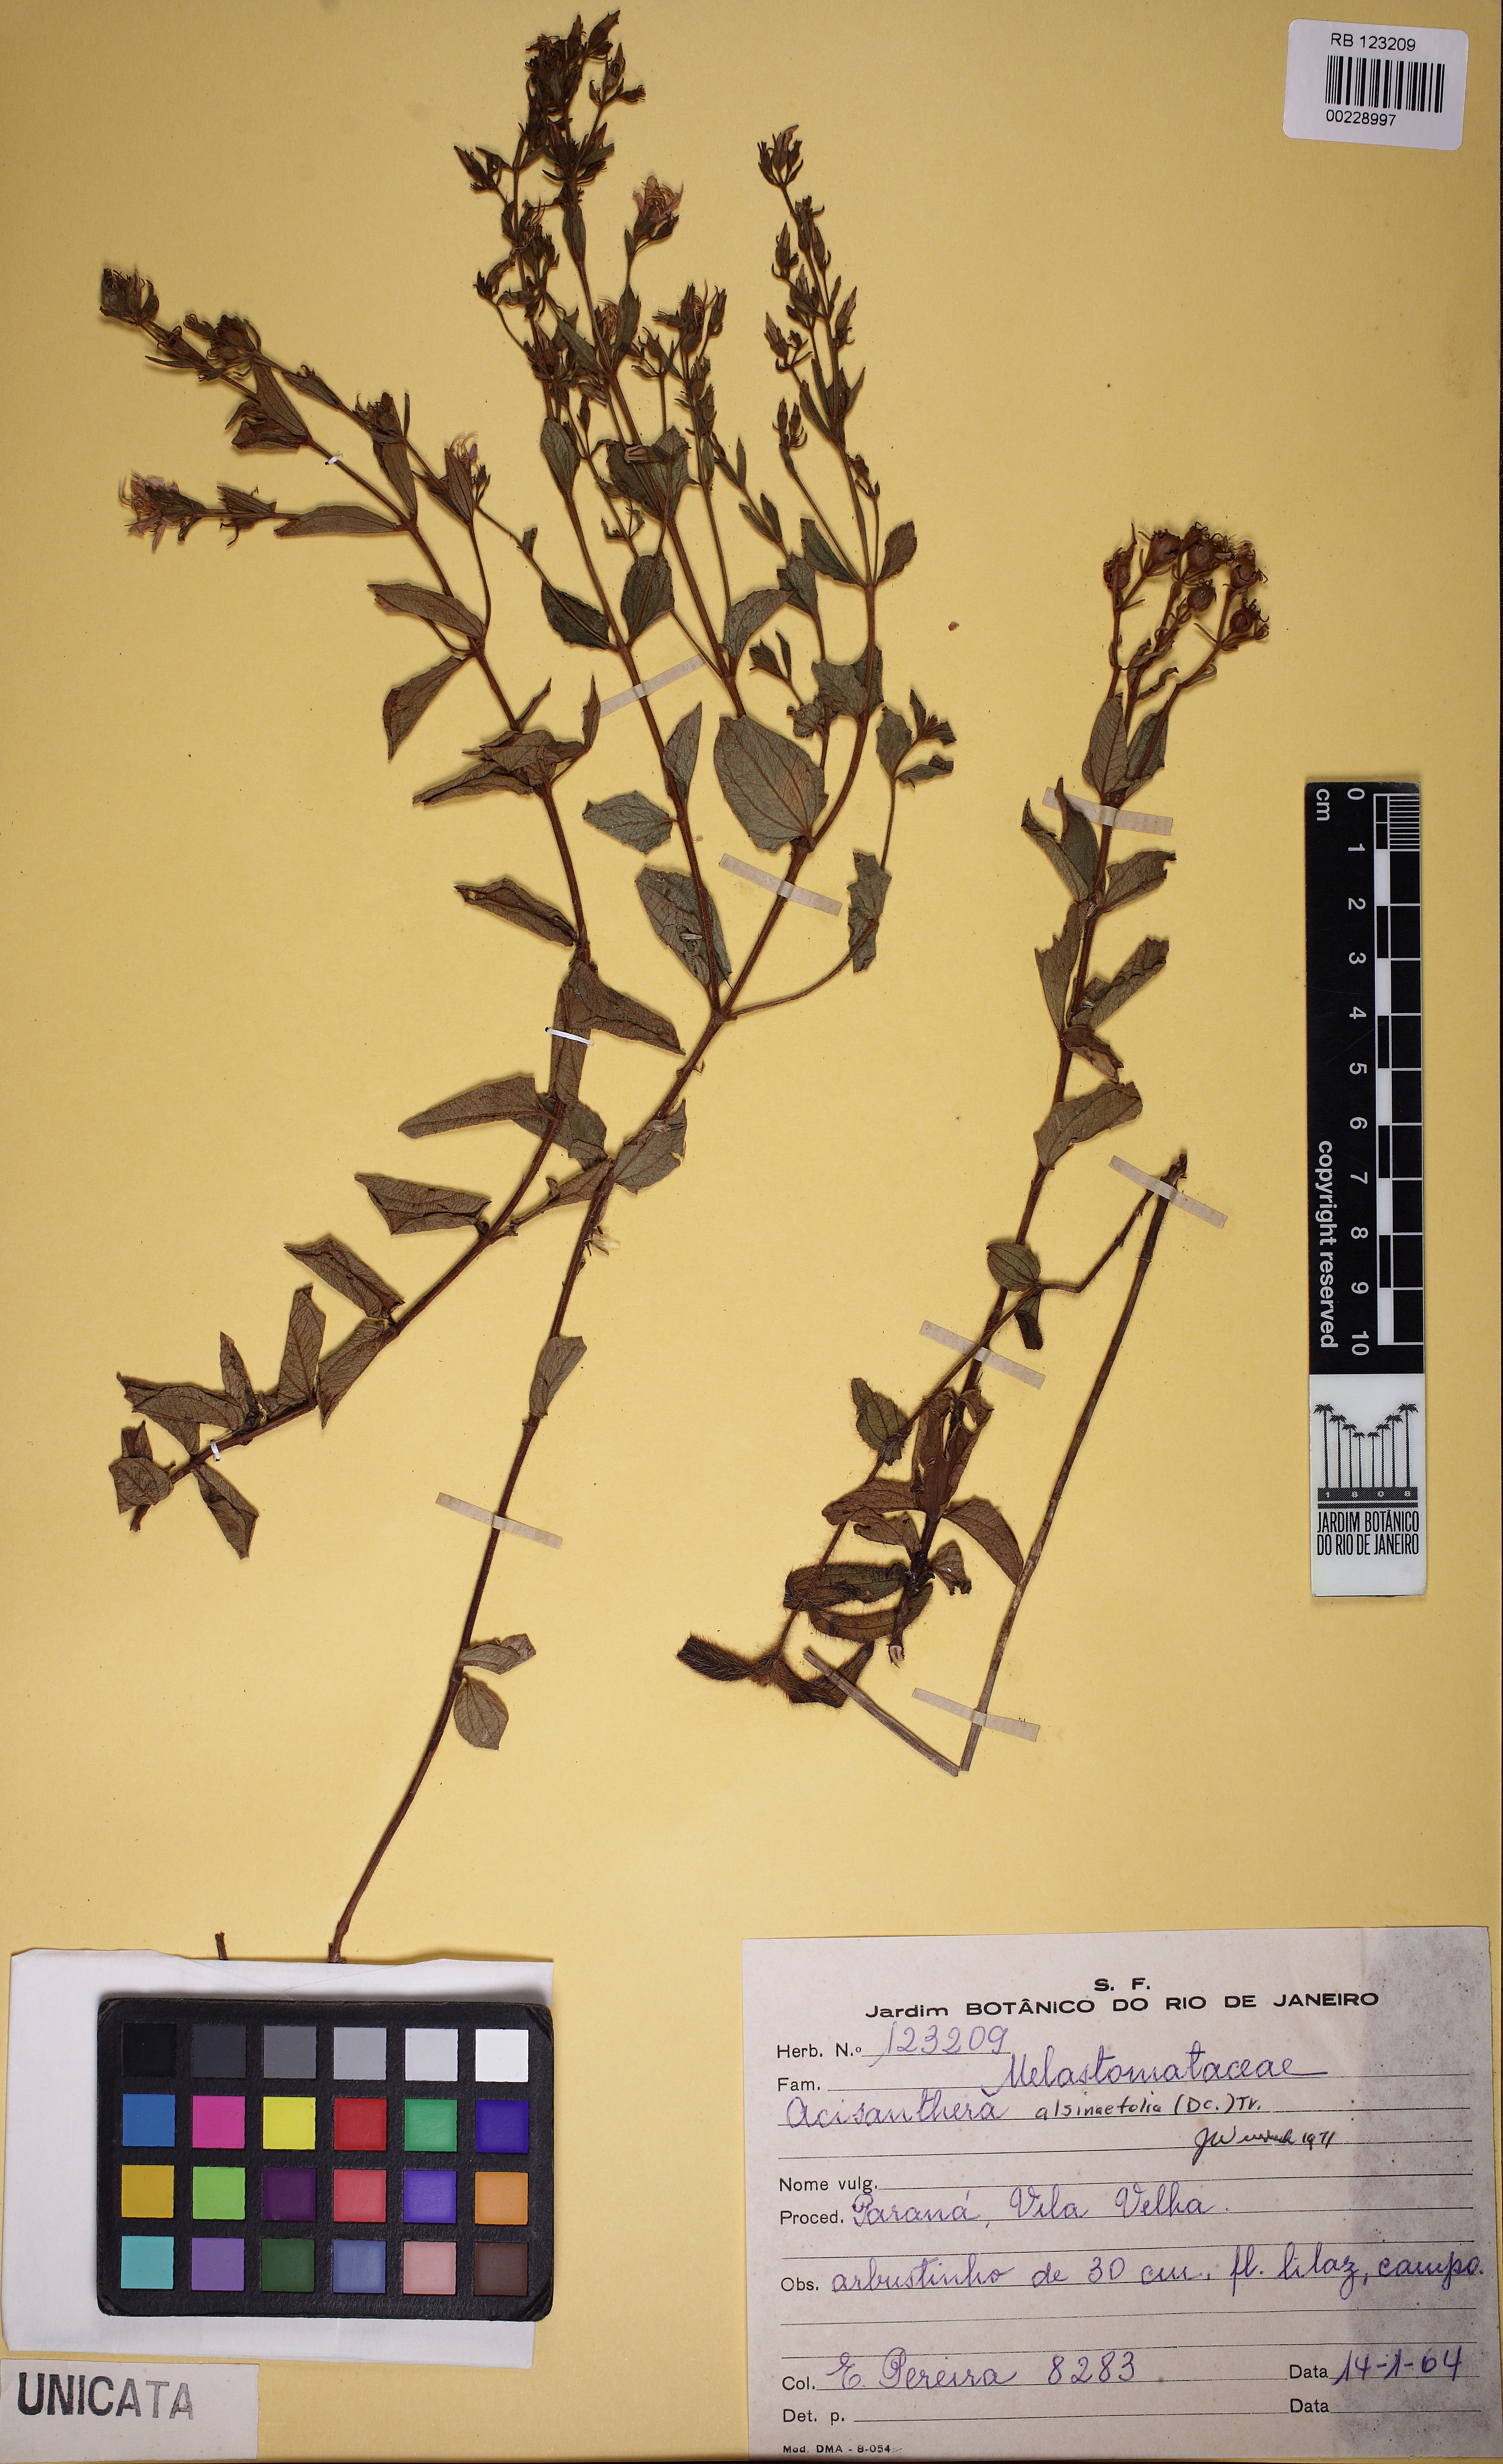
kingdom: Plantae
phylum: Tracheophyta
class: Magnoliopsida
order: Myrtales
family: Melastomataceae
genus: Acisanthera
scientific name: Acisanthera alsinaefolia
